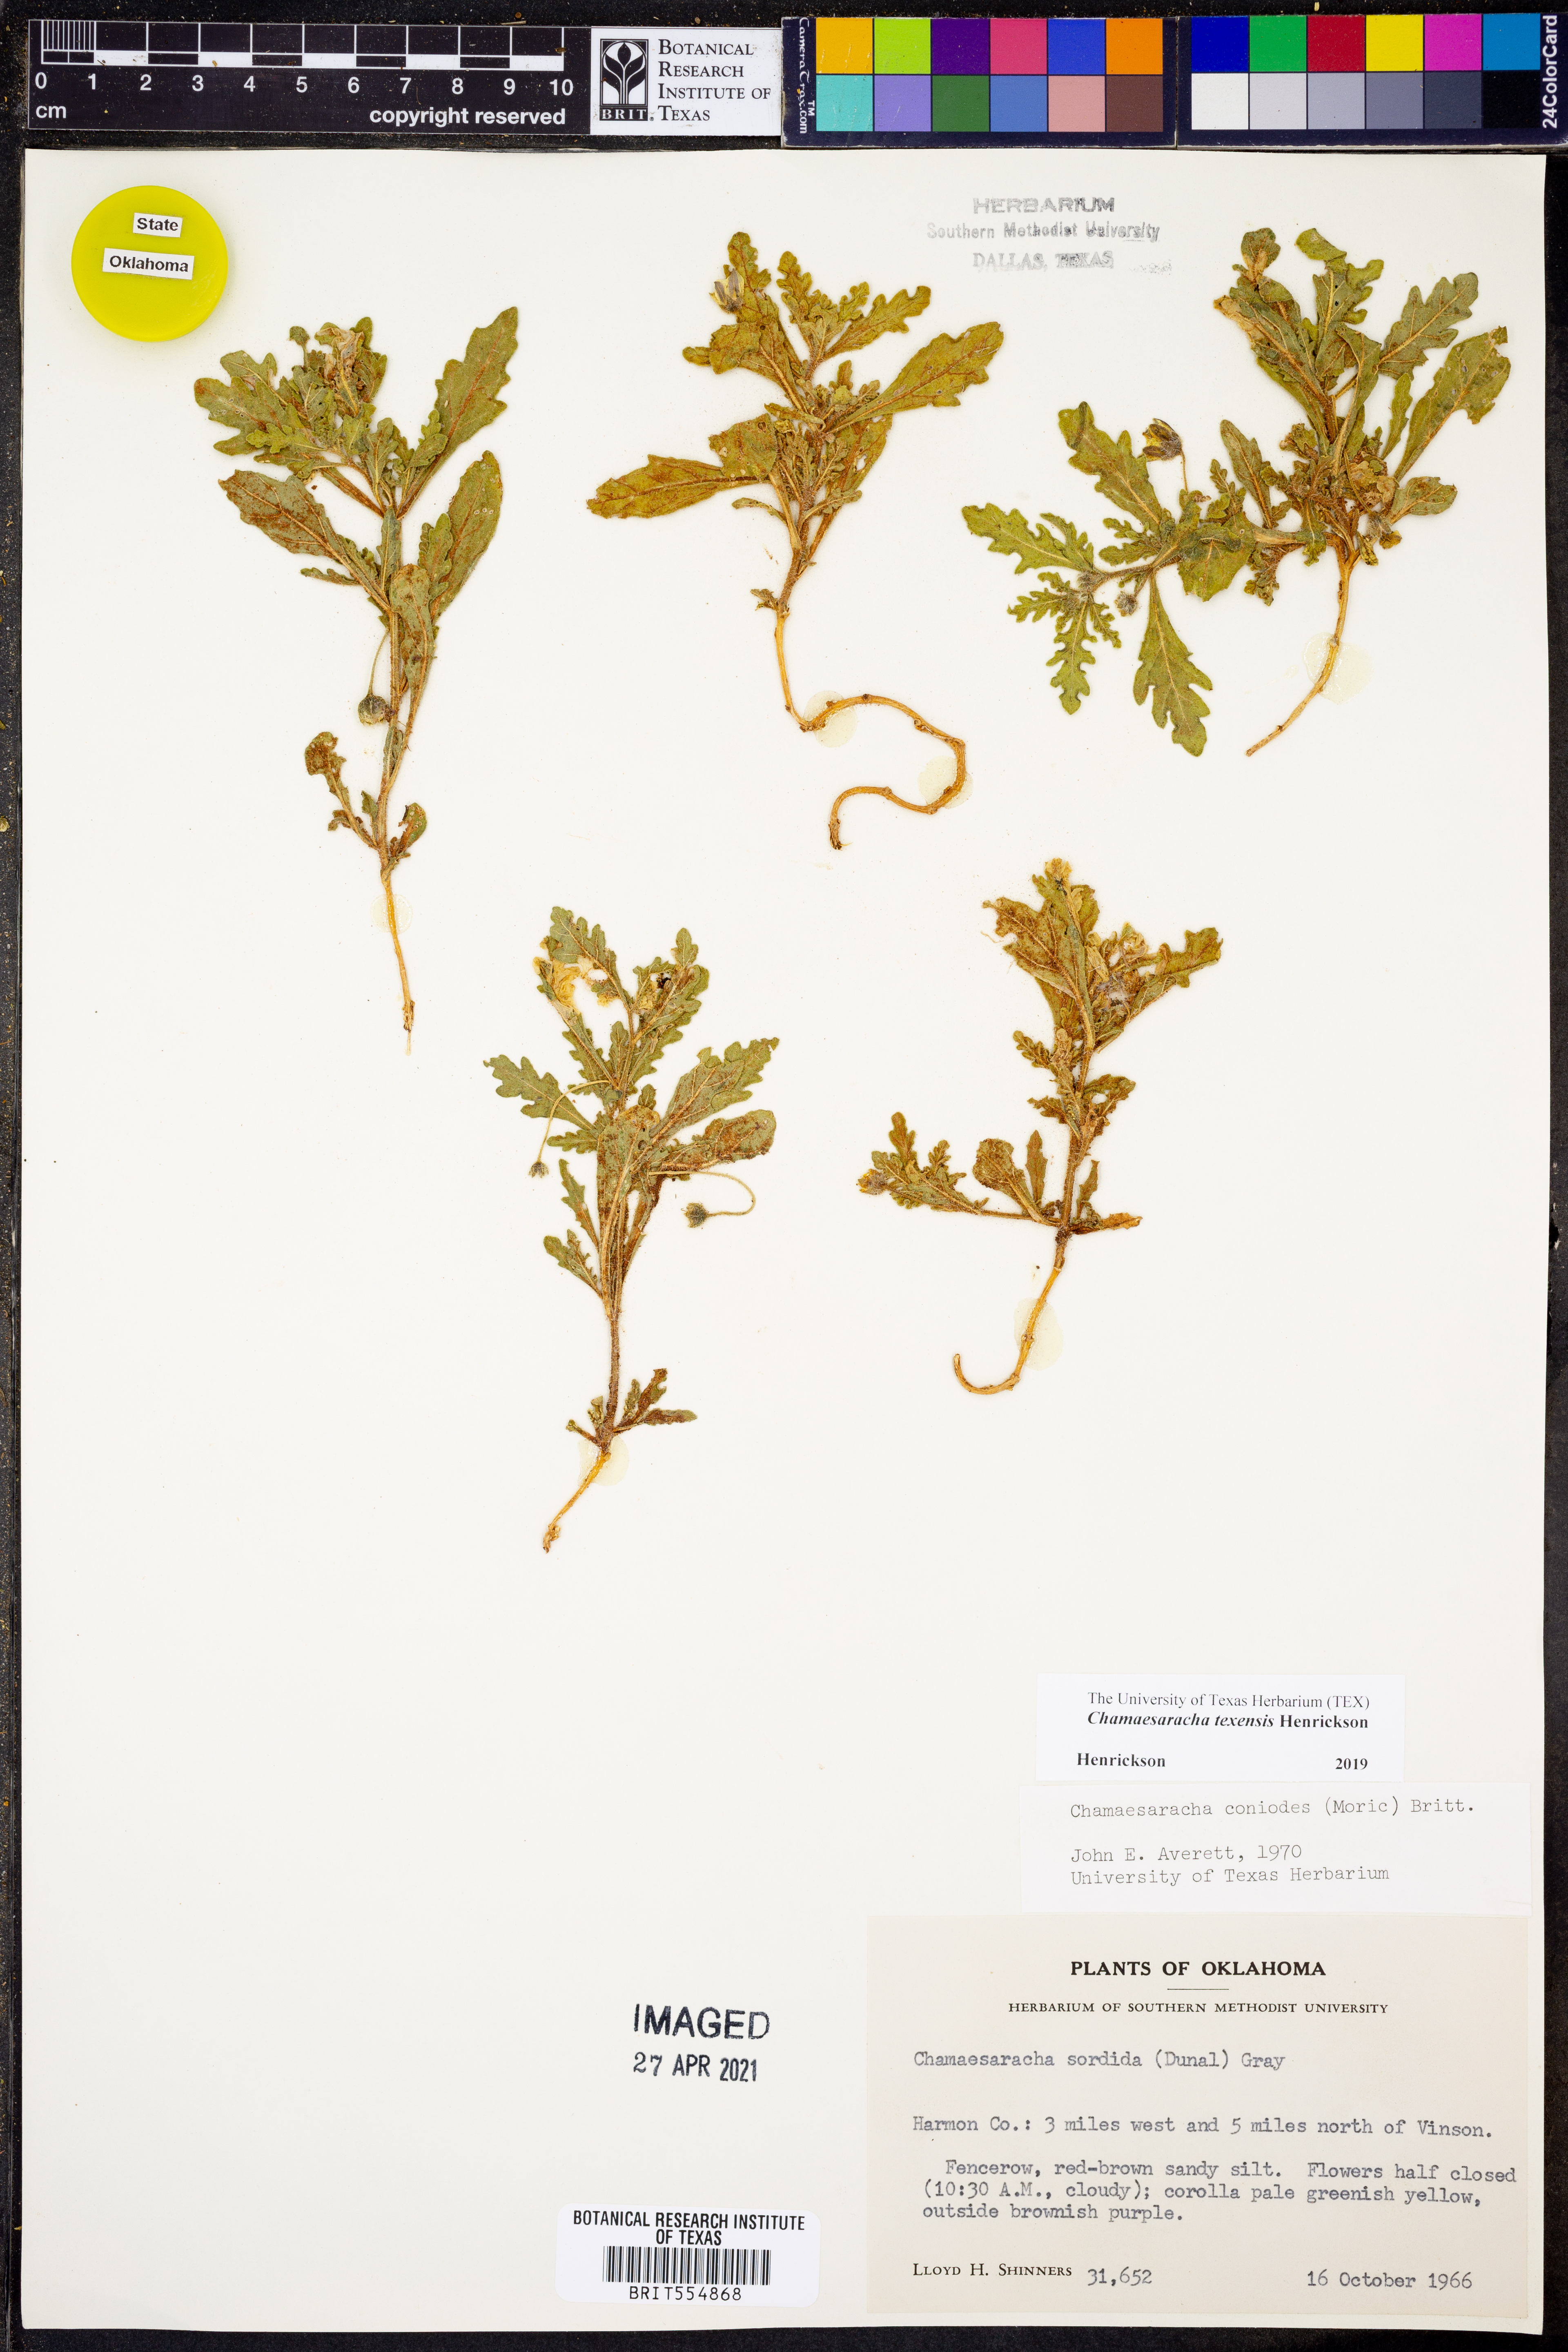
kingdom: Plantae
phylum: Tracheophyta
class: Magnoliopsida
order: Solanales
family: Solanaceae
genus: Chamaesaracha
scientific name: Chamaesaracha texensis
